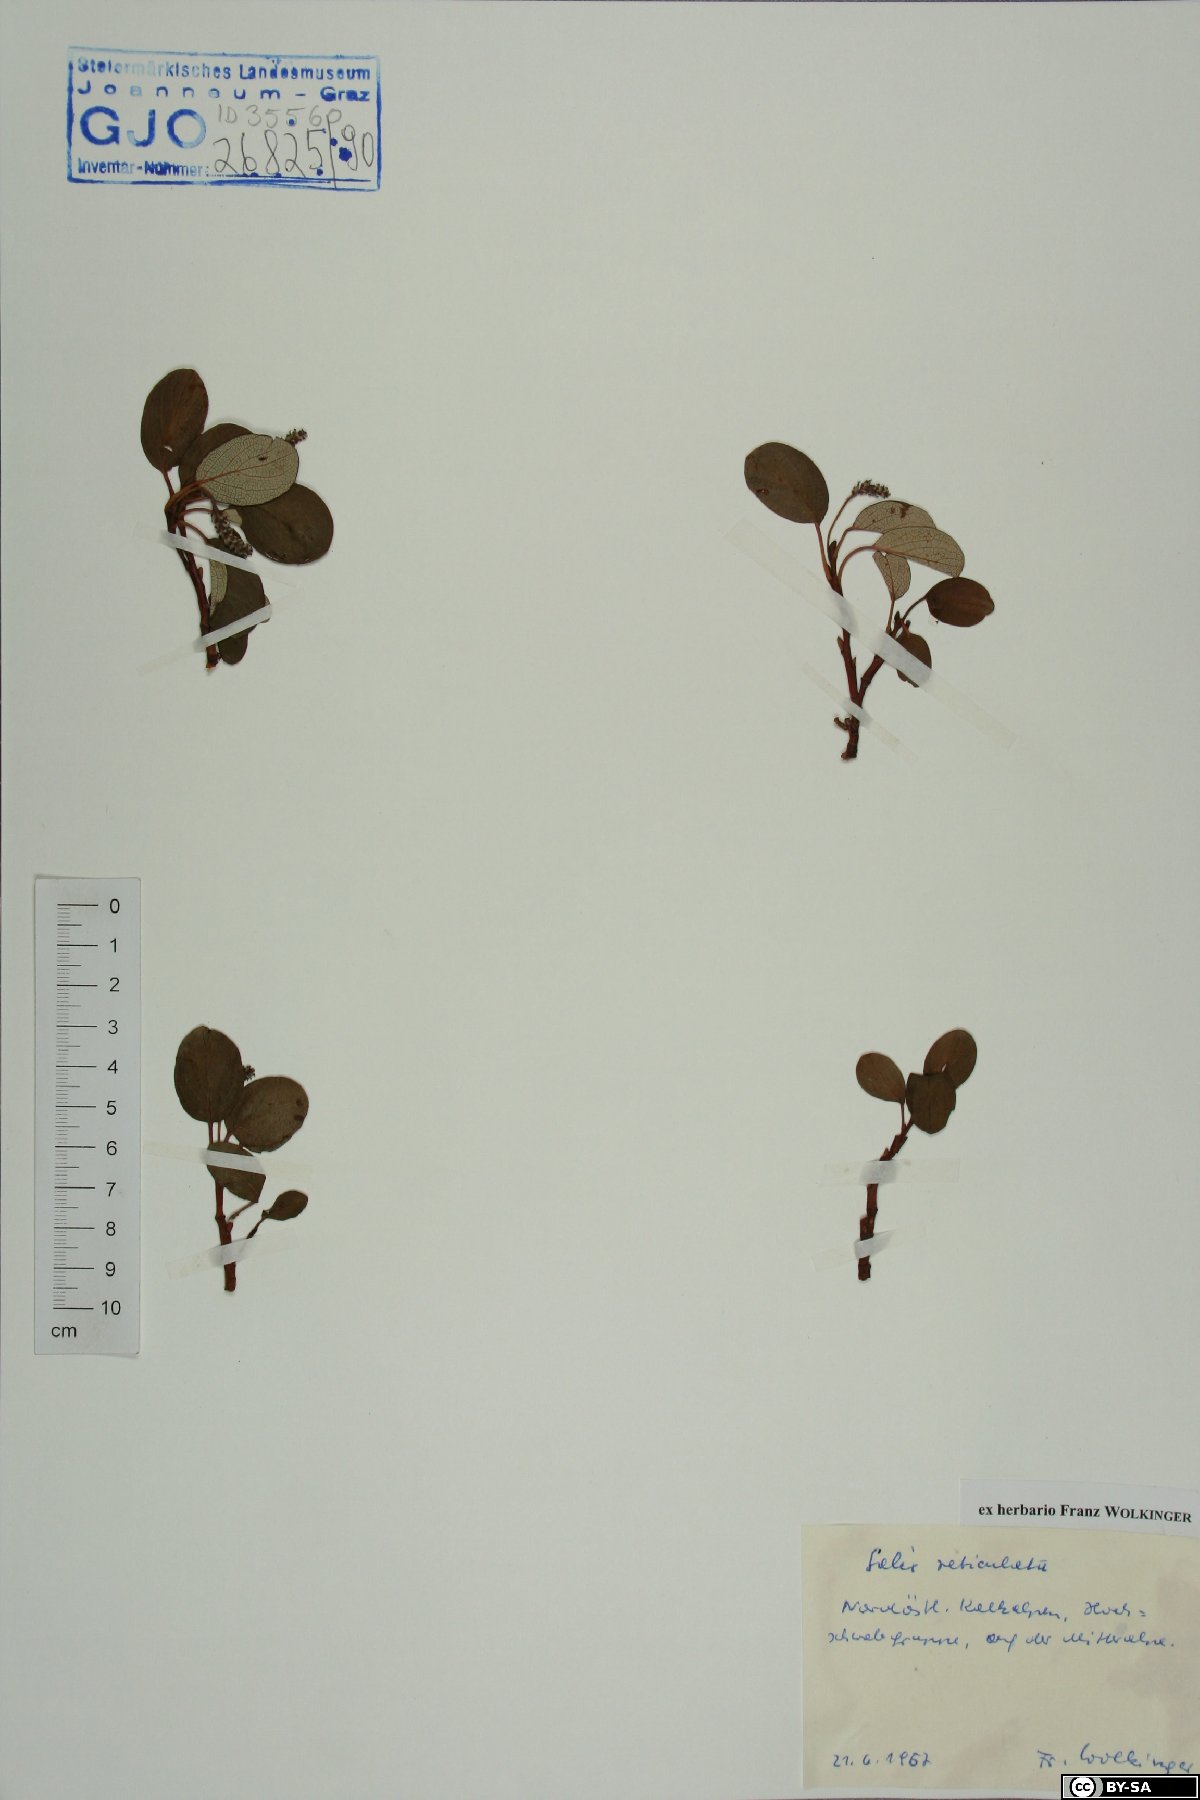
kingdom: Plantae
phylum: Tracheophyta
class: Magnoliopsida
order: Malpighiales
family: Salicaceae
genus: Salix
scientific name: Salix reticulata
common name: Net-leaved willow
